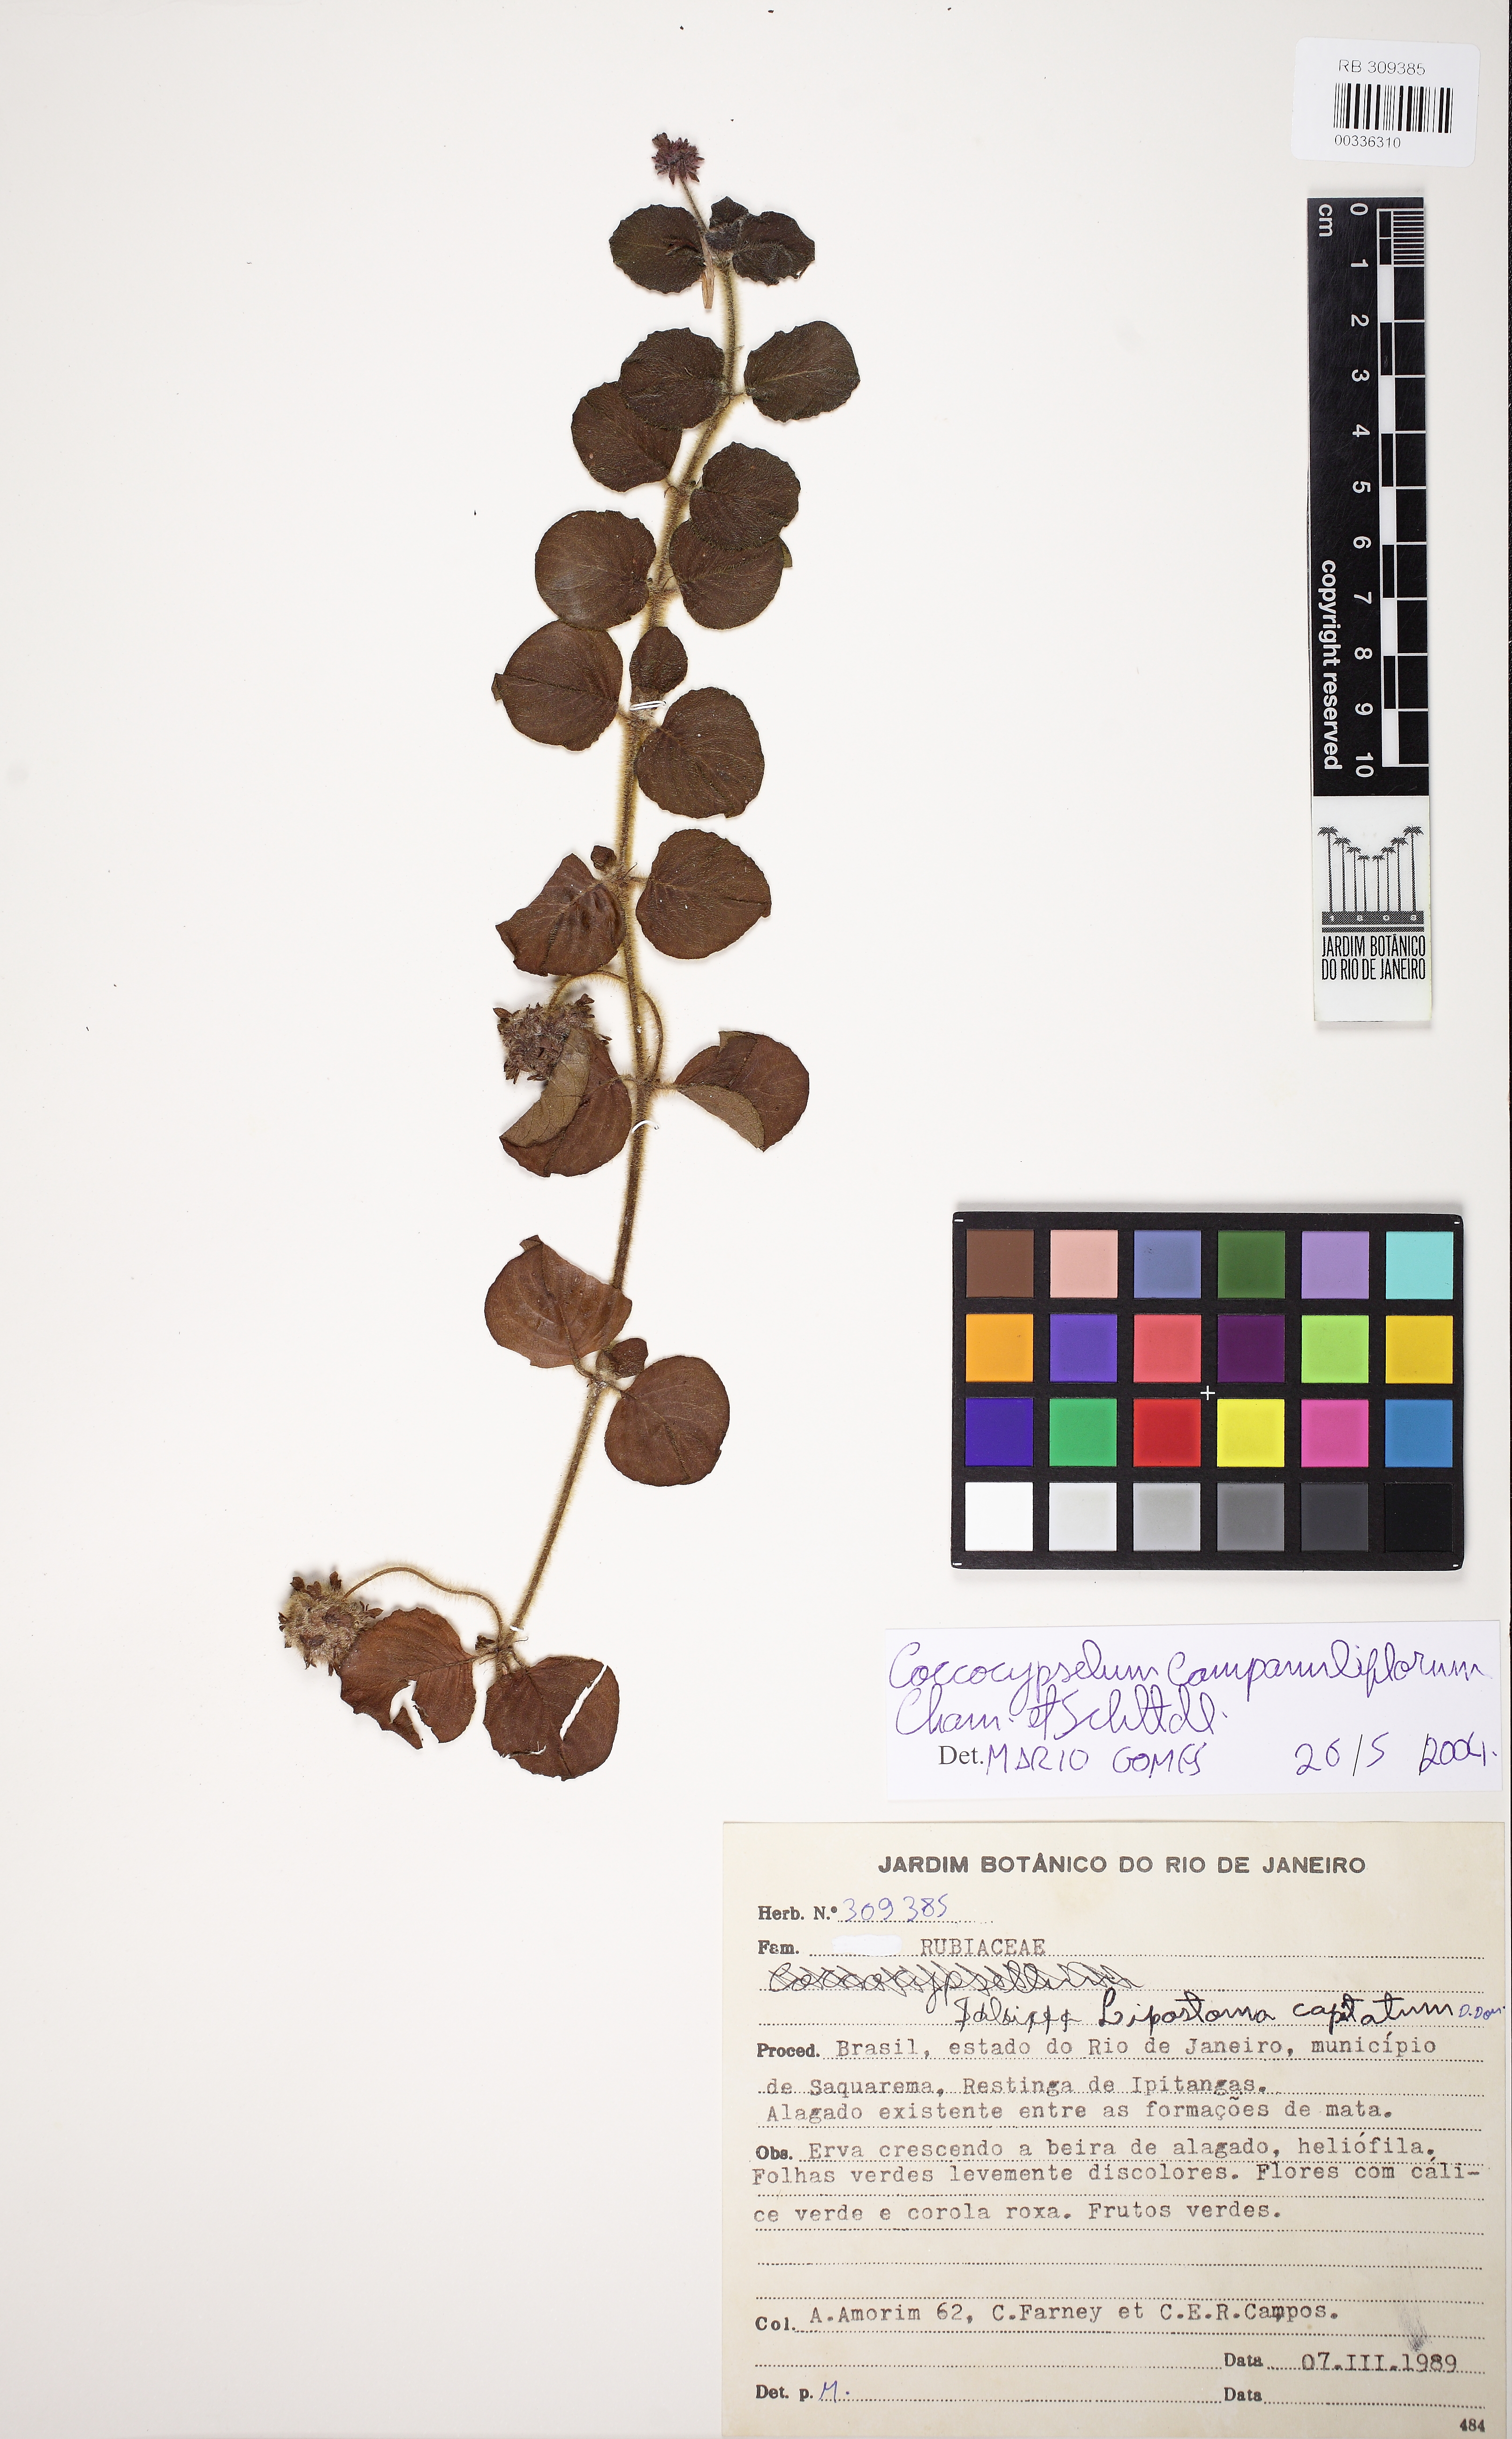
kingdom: Plantae
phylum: Tracheophyta
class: Magnoliopsida
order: Gentianales
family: Rubiaceae
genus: Coccocypselum
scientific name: Coccocypselum capitatum
